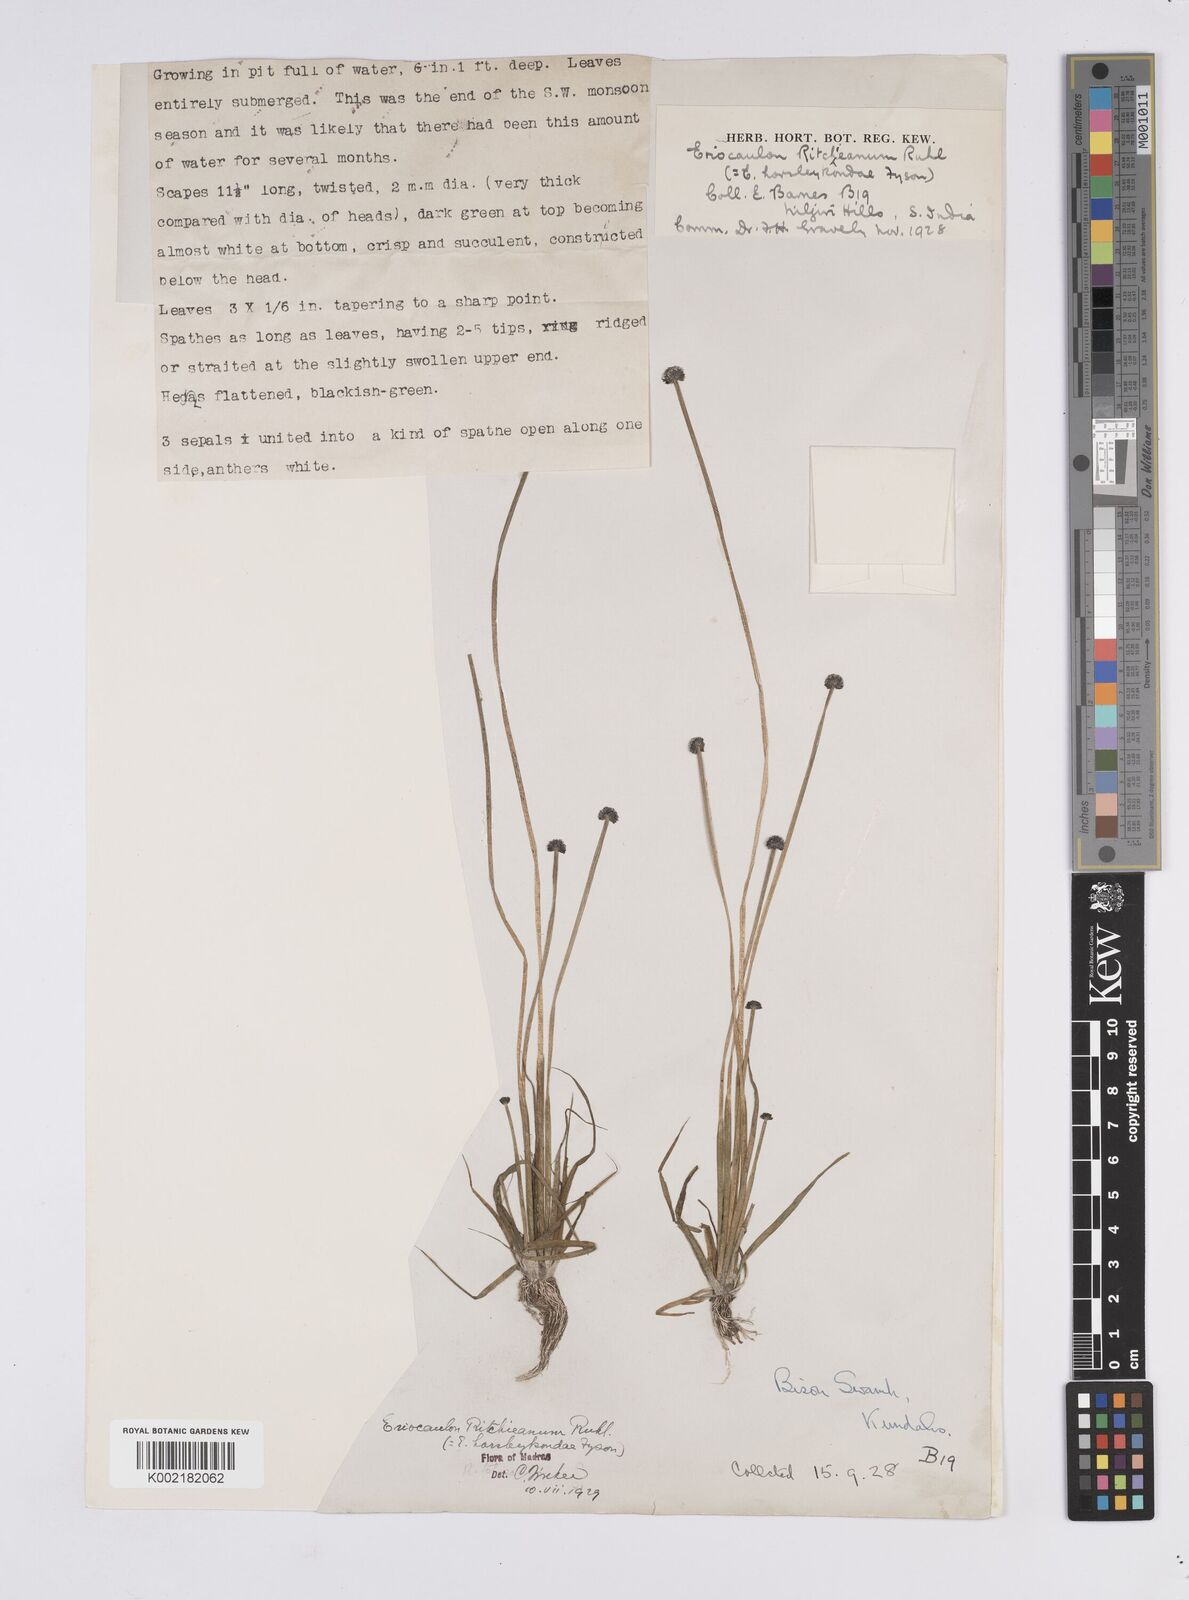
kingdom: Plantae
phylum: Tracheophyta
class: Liliopsida
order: Poales
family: Eriocaulaceae
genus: Eriocaulon
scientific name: Eriocaulon ritchieanum
